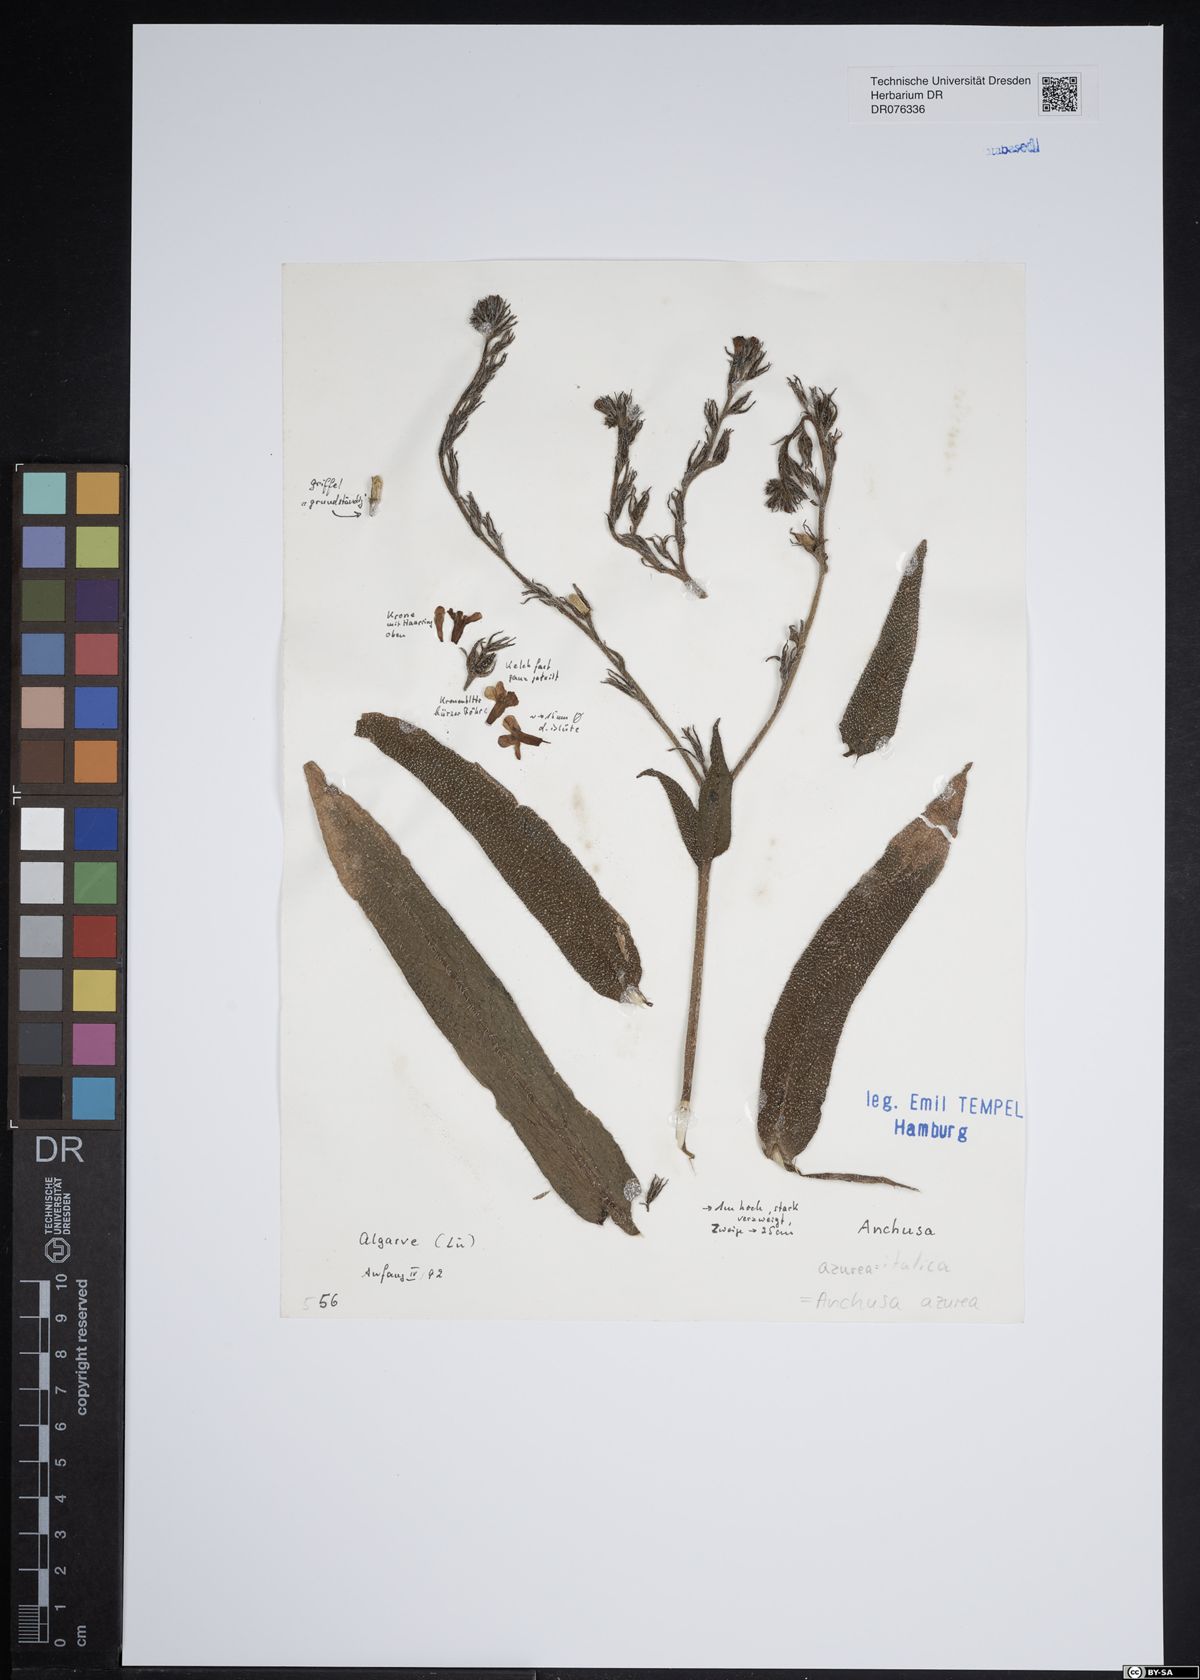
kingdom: Plantae
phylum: Tracheophyta
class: Magnoliopsida
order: Boraginales
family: Boraginaceae
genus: Anchusa
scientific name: Anchusa azurea
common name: Garden anchusa
